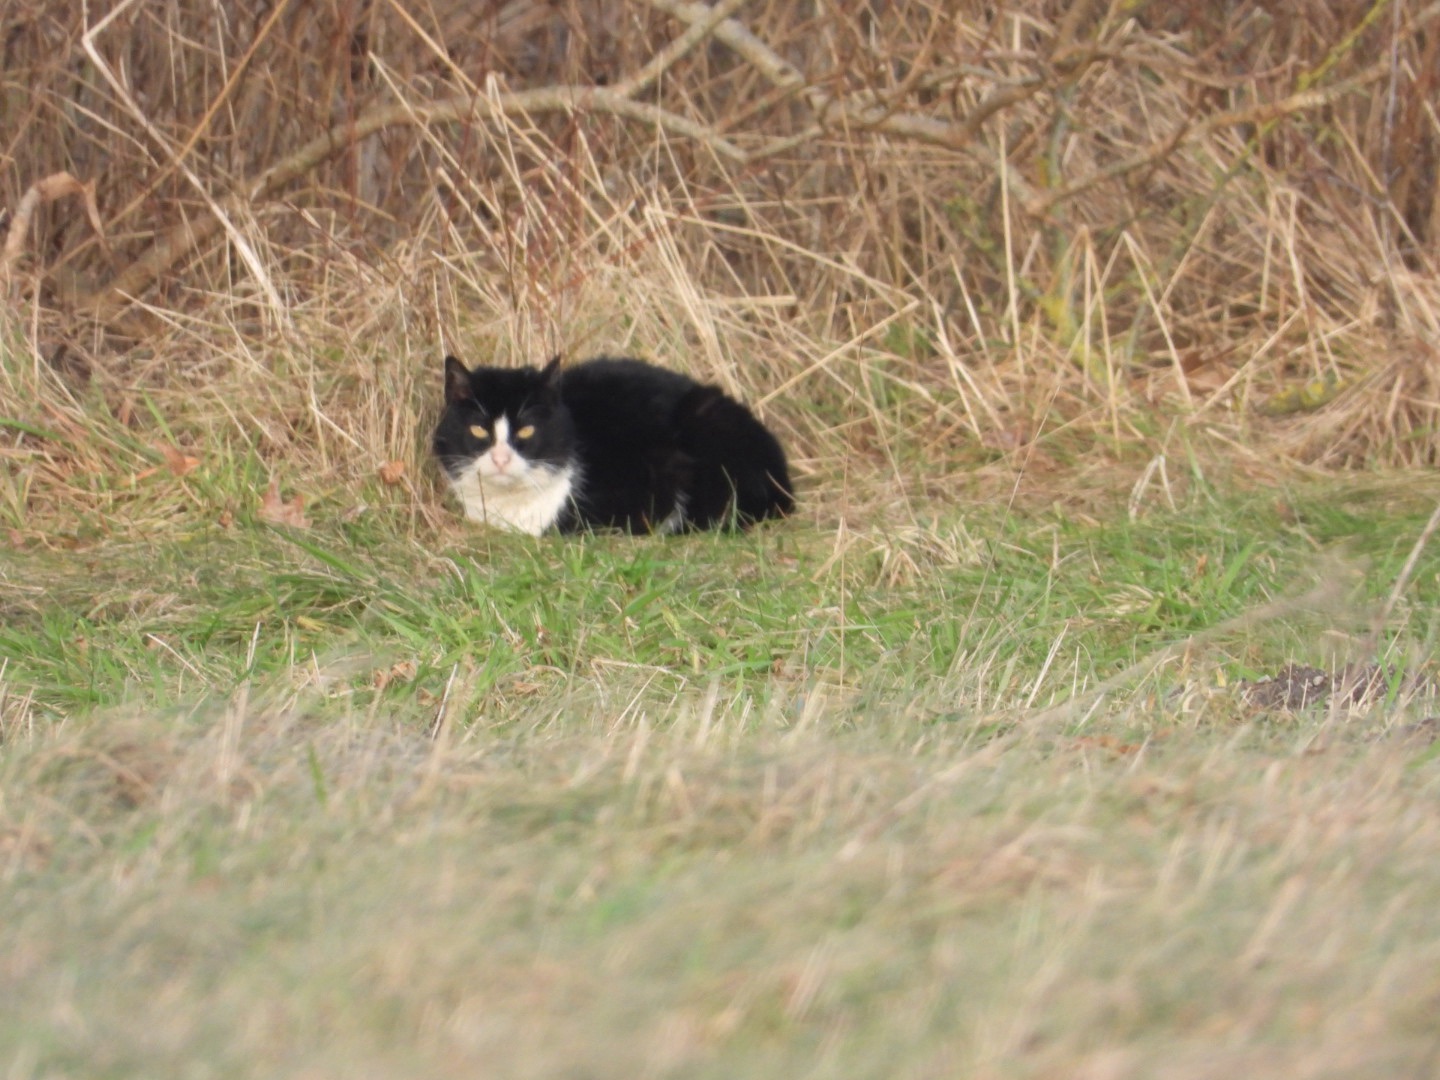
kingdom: Animalia
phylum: Chordata
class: Mammalia
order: Carnivora
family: Felidae
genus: Felis
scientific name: Felis catus
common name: Tamkat
